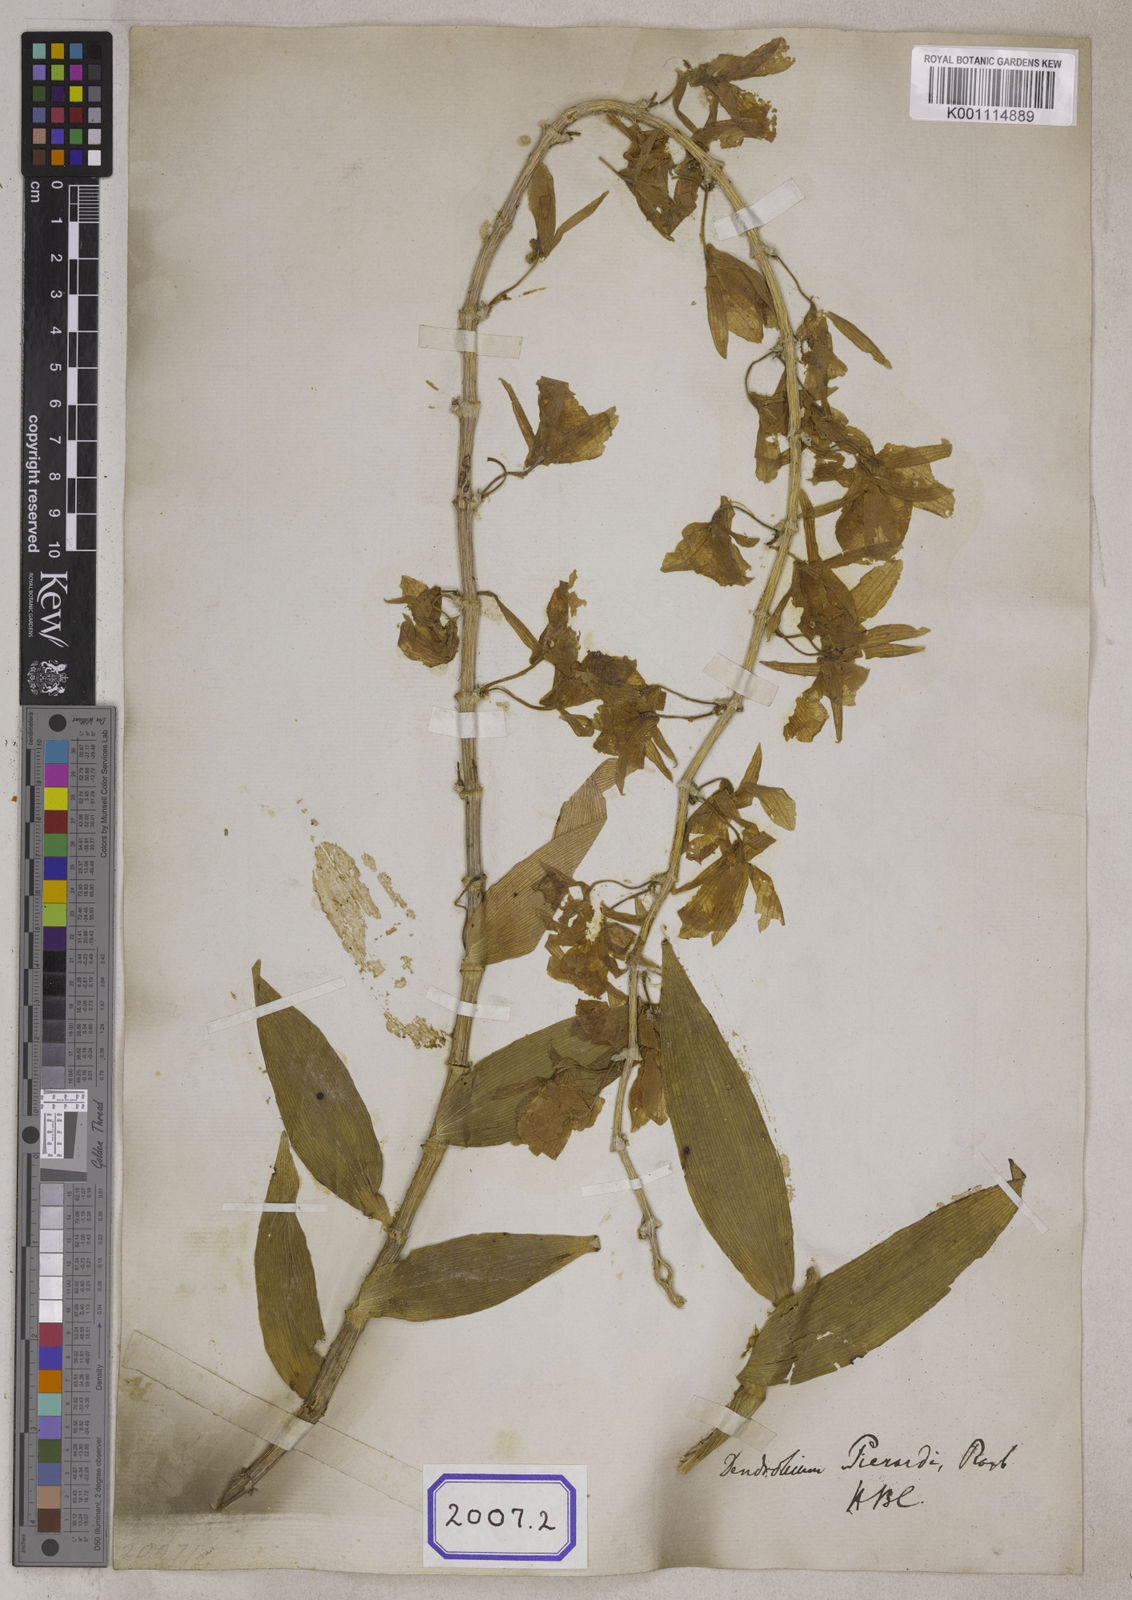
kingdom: Plantae
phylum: Tracheophyta
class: Liliopsida
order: Asparagales
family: Orchidaceae
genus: Dendrobium
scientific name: Dendrobium
